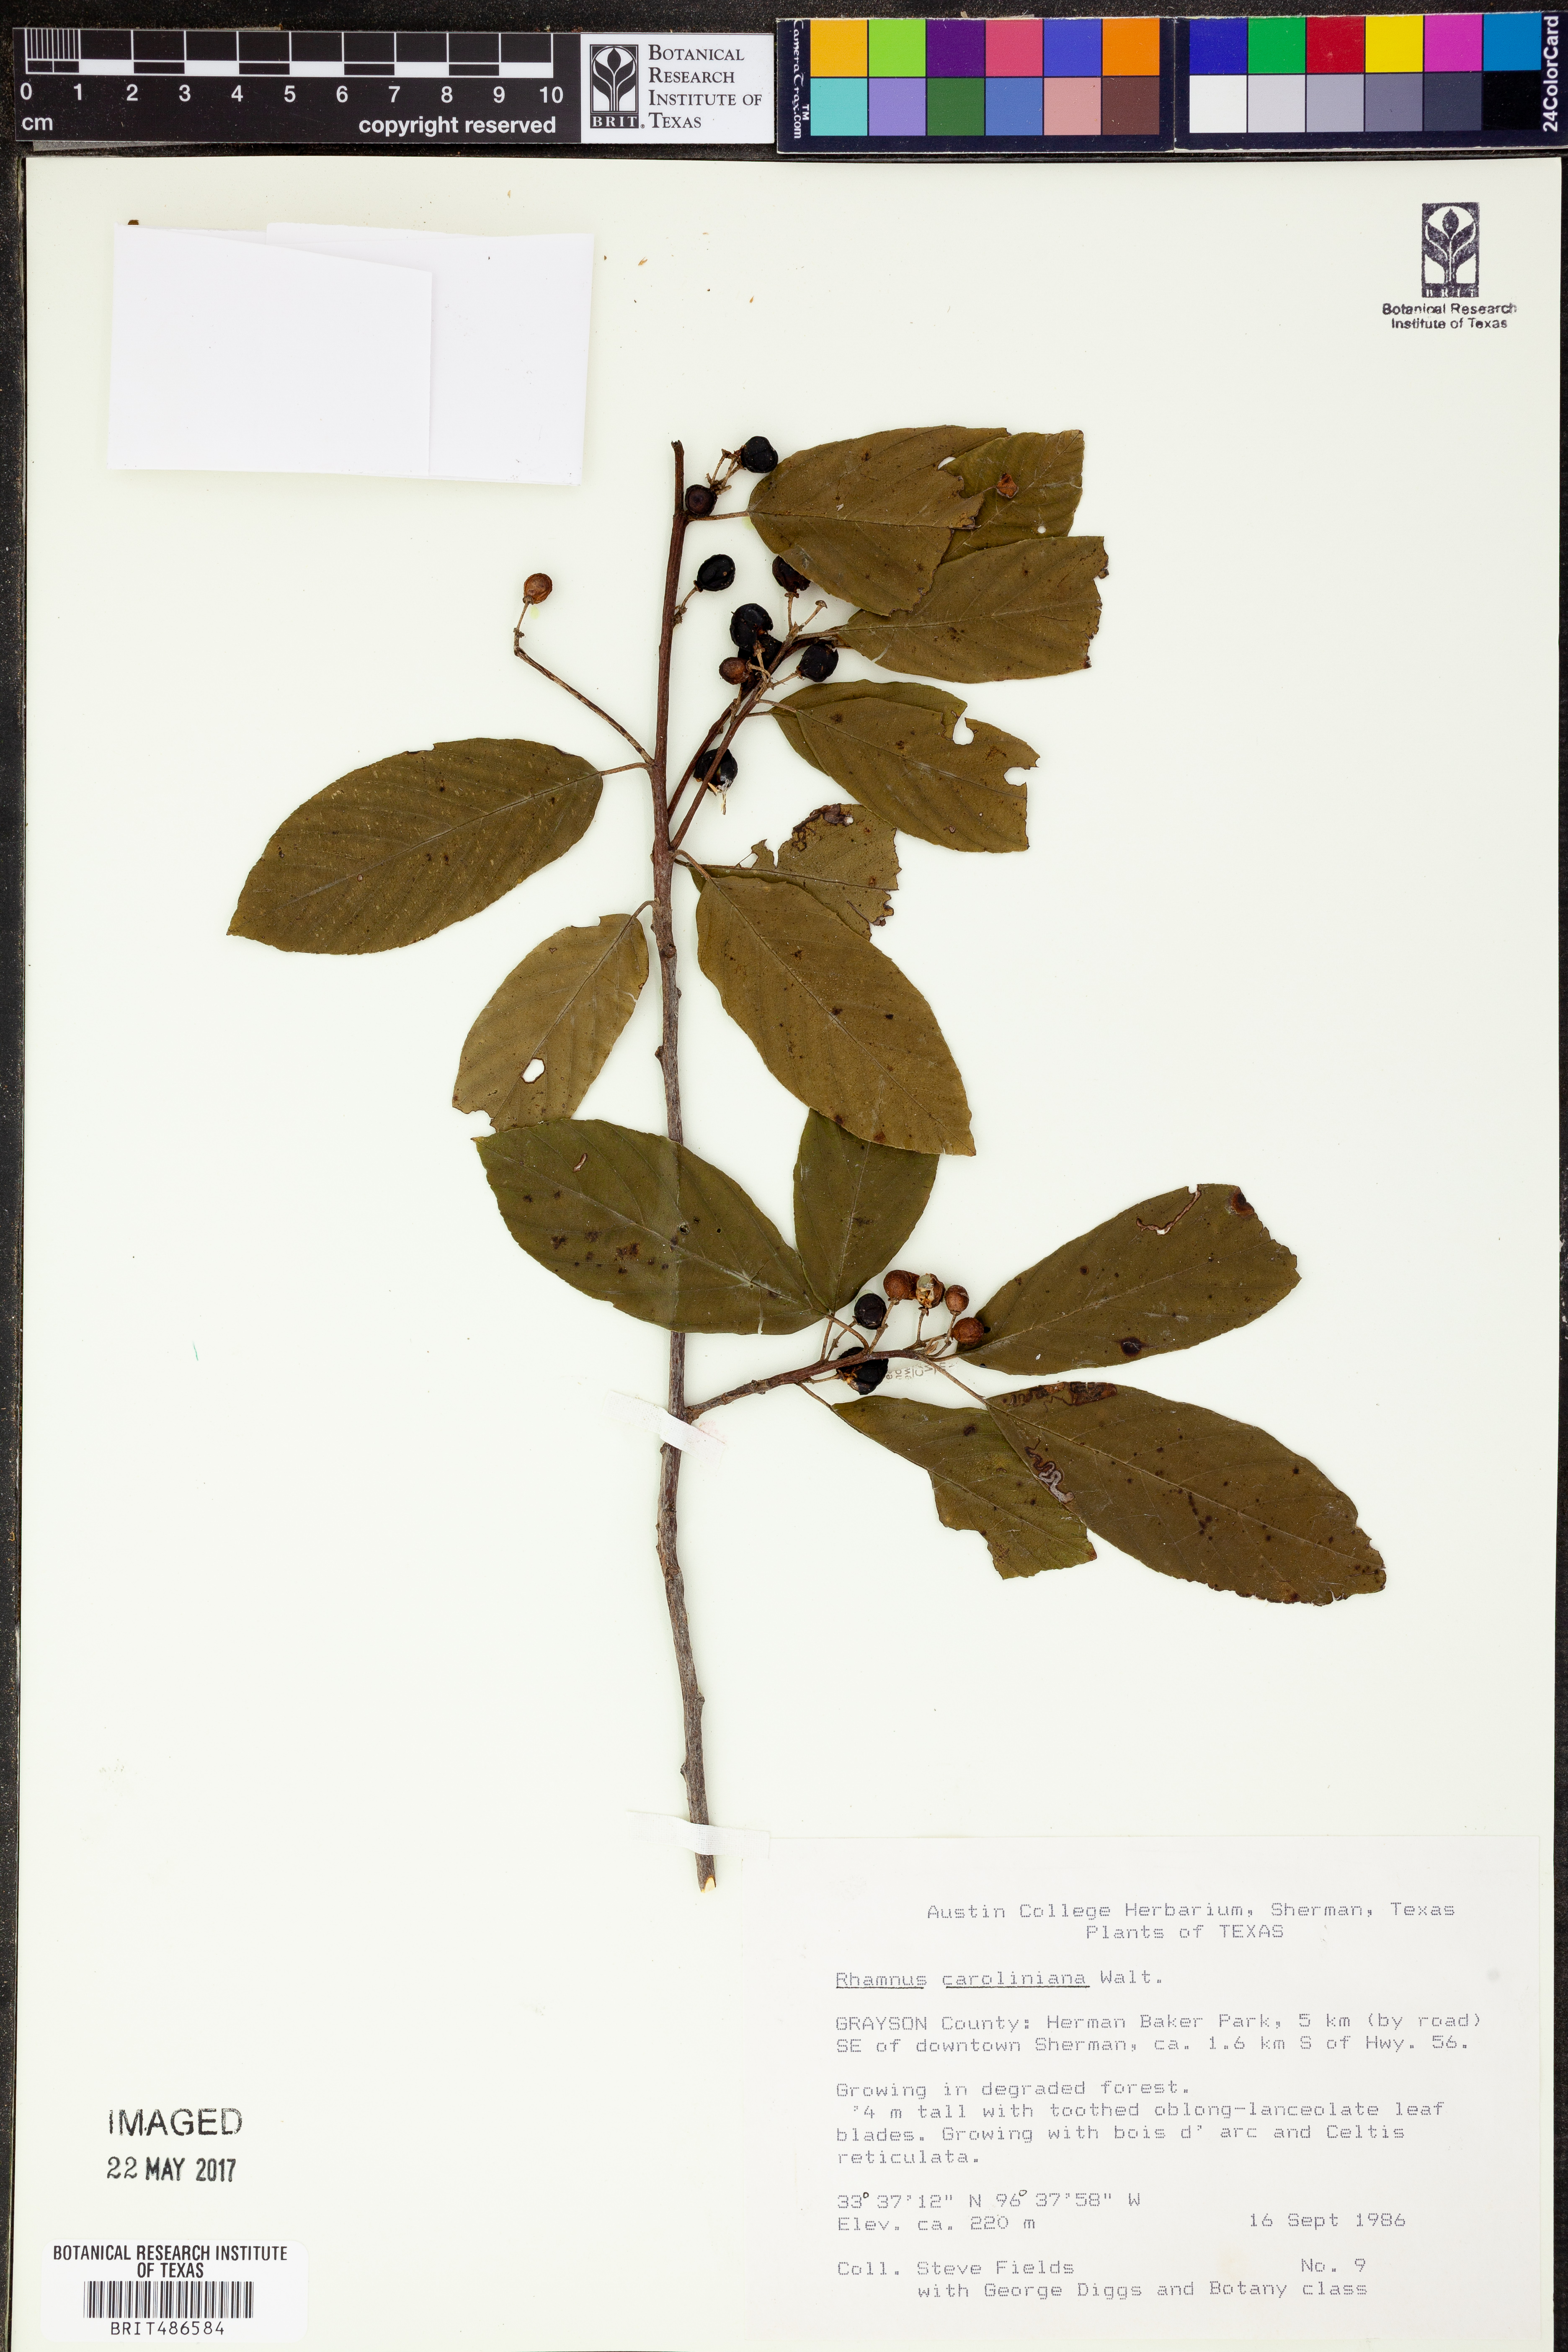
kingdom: Plantae
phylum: Tracheophyta
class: Magnoliopsida
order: Rosales
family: Rhamnaceae
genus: Frangula
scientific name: Frangula caroliniana
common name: Carolina buckthorn
